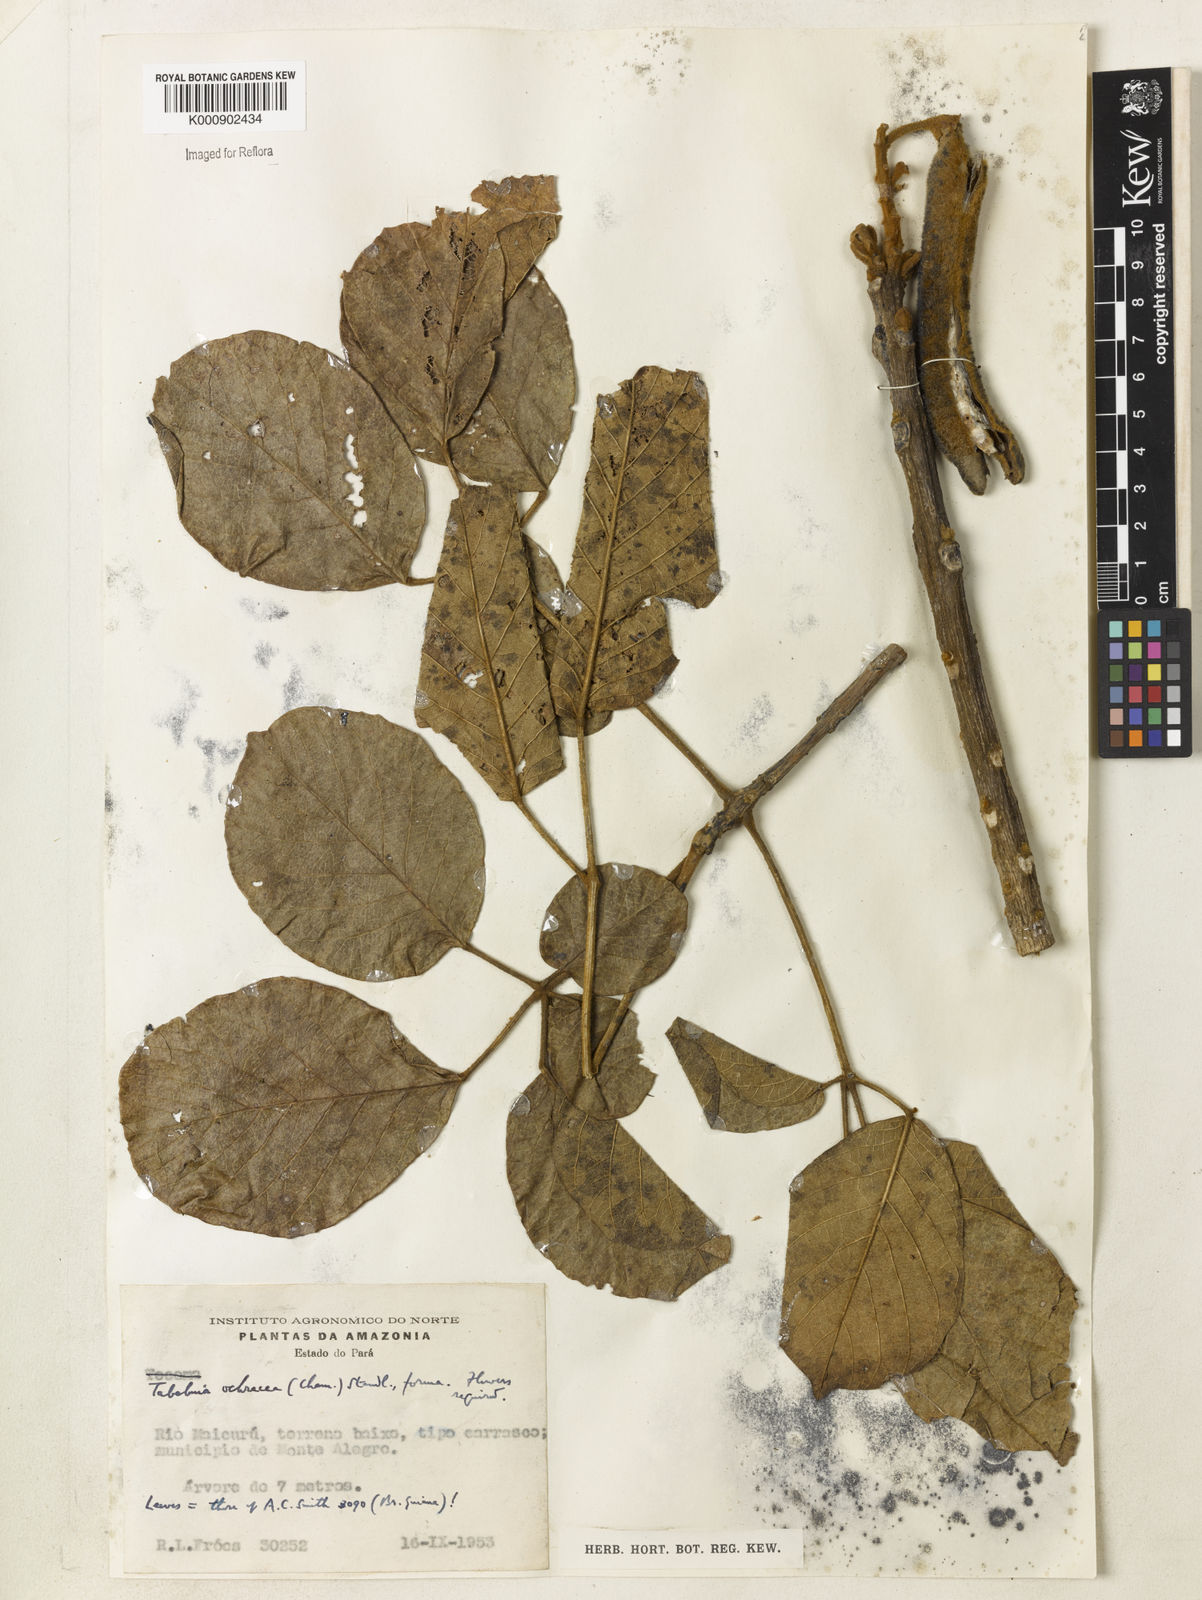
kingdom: Plantae
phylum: Tracheophyta
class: Magnoliopsida
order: Lamiales
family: Bignoniaceae
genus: Handroanthus
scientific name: Handroanthus ochraceus
